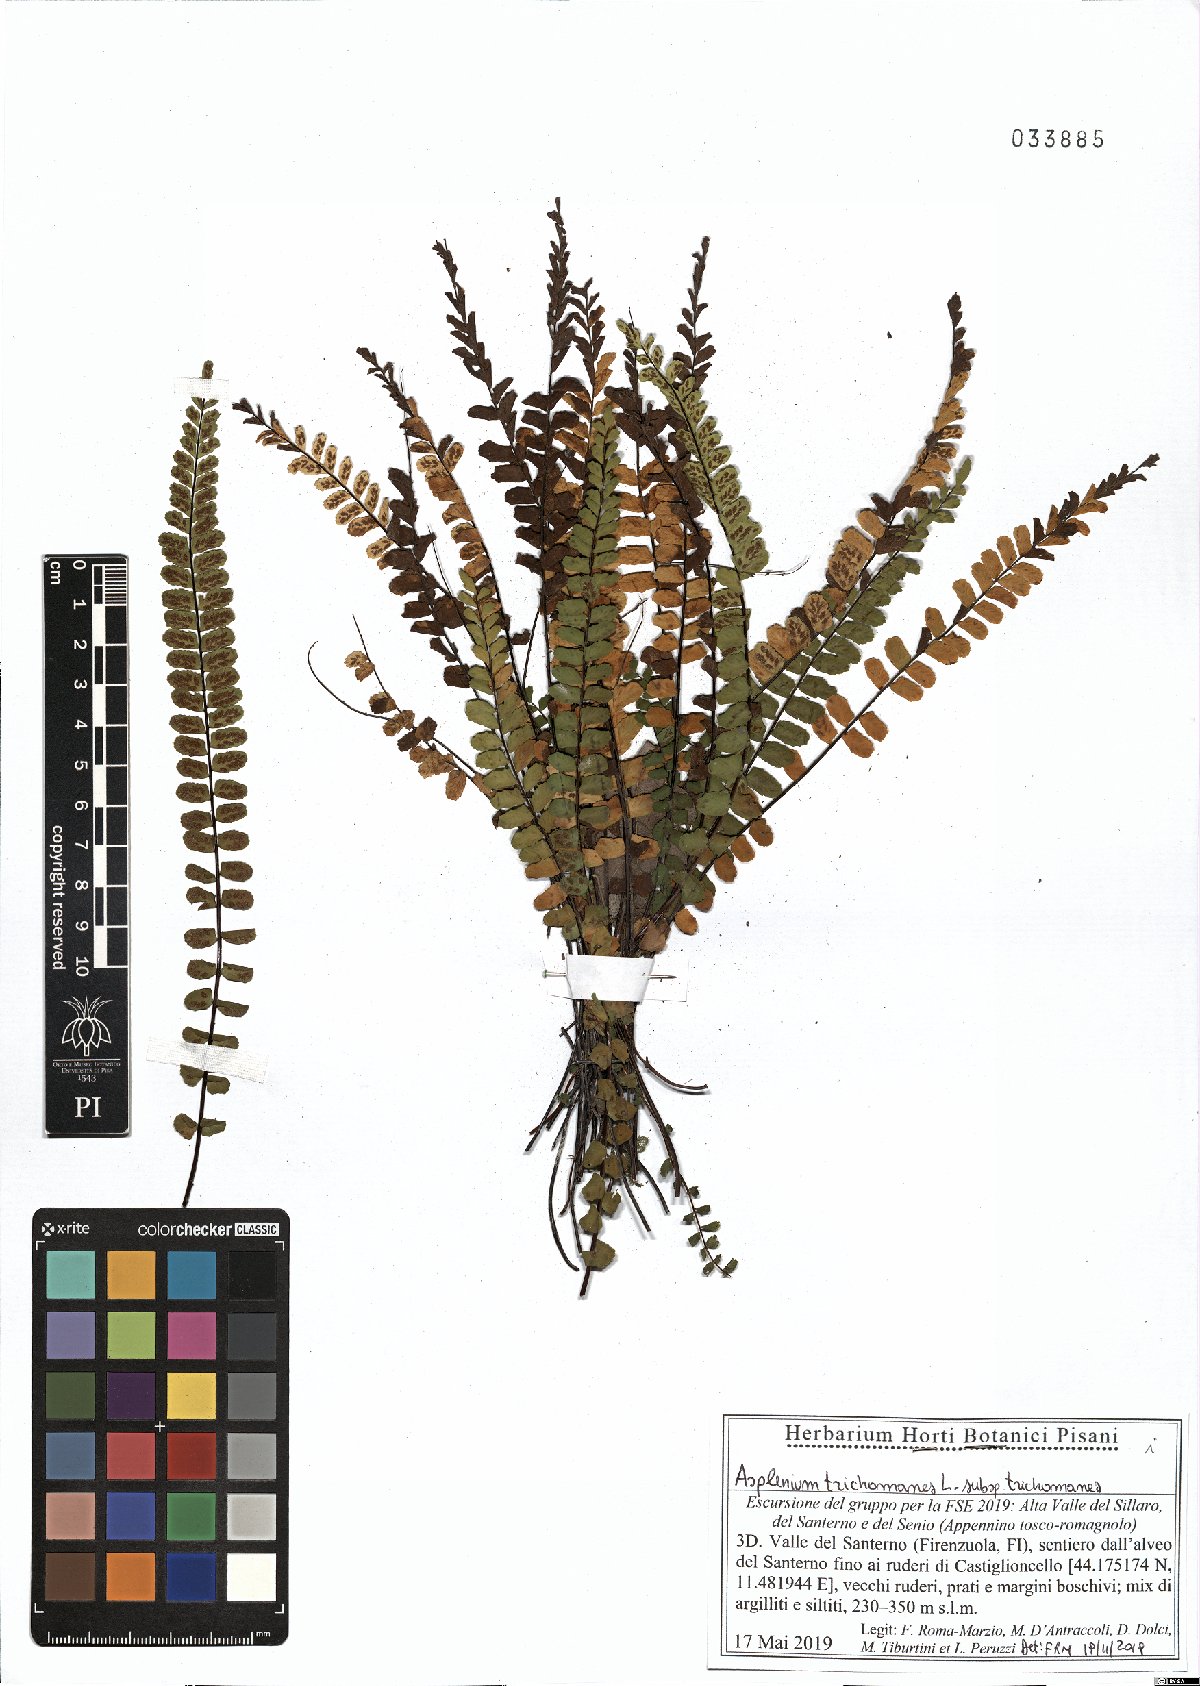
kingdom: Plantae
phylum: Tracheophyta
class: Polypodiopsida
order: Polypodiales
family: Aspleniaceae
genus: Asplenium
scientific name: Asplenium trichomanes
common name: Maidenhair spleenwort
